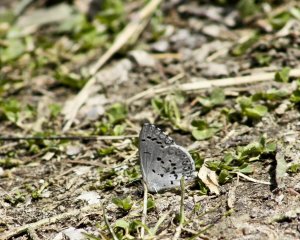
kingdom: Animalia
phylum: Arthropoda
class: Insecta
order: Lepidoptera
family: Lycaenidae
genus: Celastrina
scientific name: Celastrina lucia
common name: Northern Spring Azure
